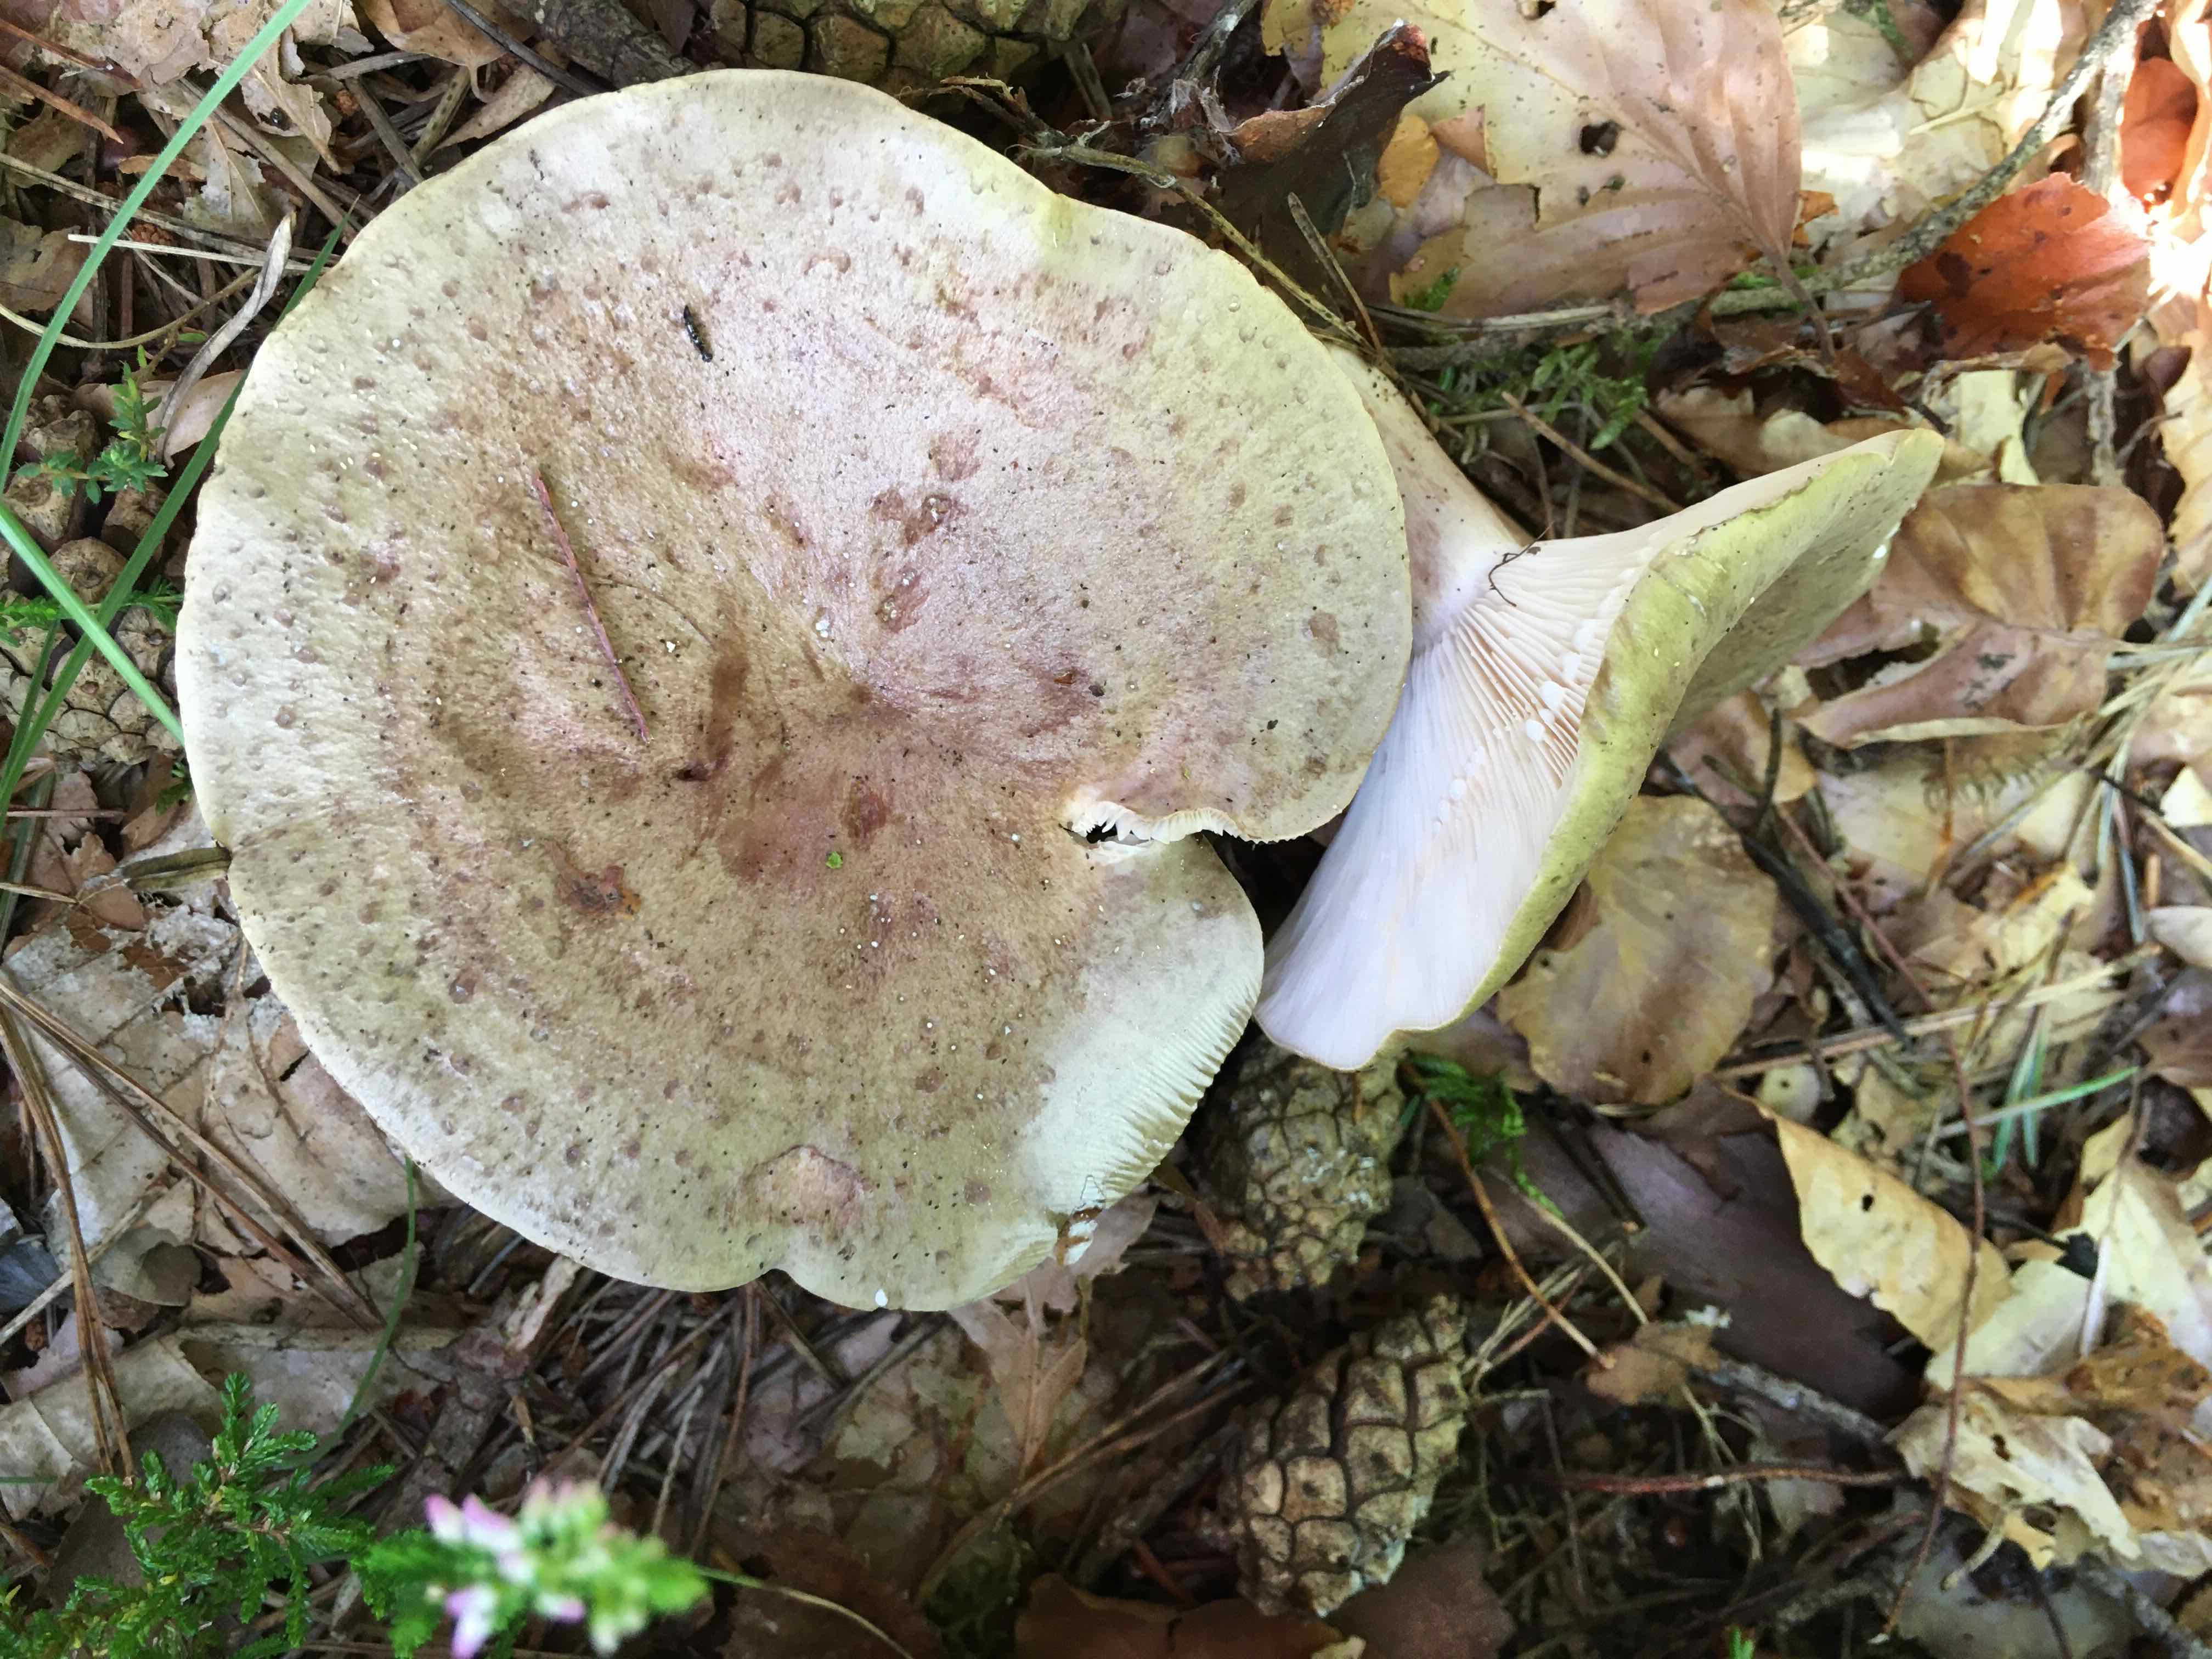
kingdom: Fungi
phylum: Basidiomycota
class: Agaricomycetes
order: Russulales
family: Russulaceae
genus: Lactarius
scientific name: Lactarius blennius
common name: dråbeplettet mælkehat
